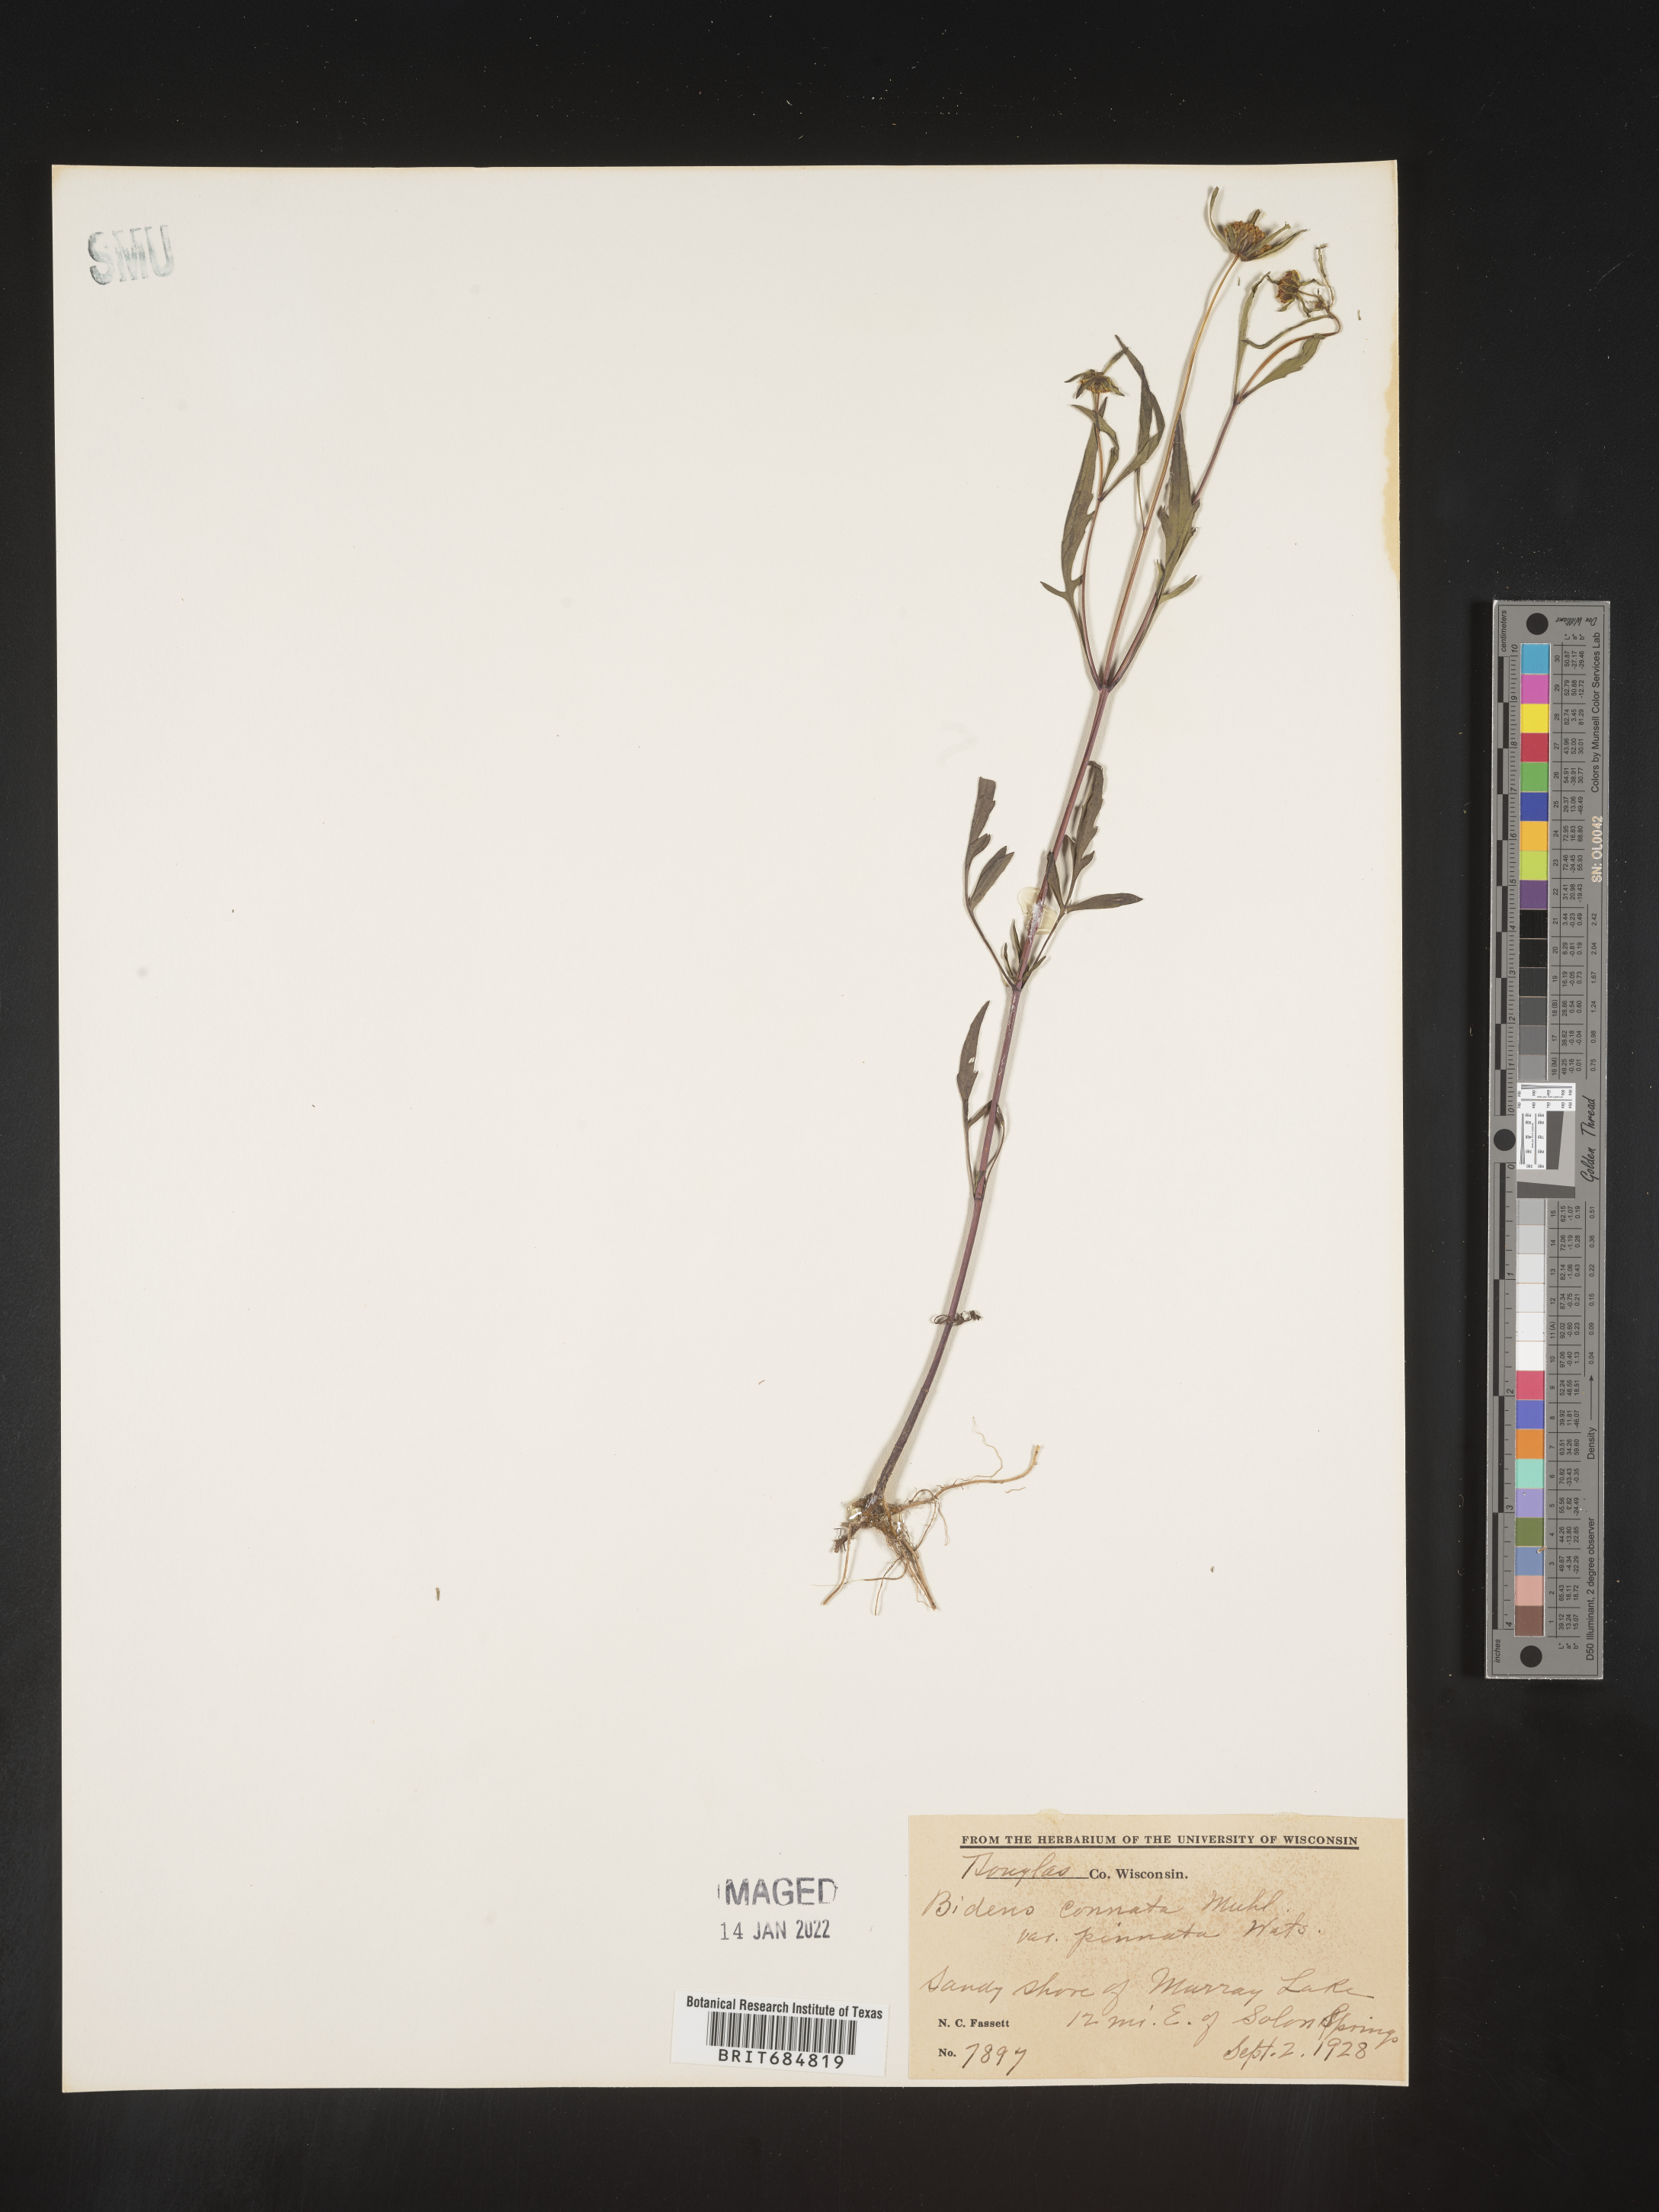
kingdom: Plantae
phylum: Tracheophyta
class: Magnoliopsida
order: Asterales
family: Asteraceae
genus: Bidens
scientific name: Bidens tripartita
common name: Trifid bur-marigold
